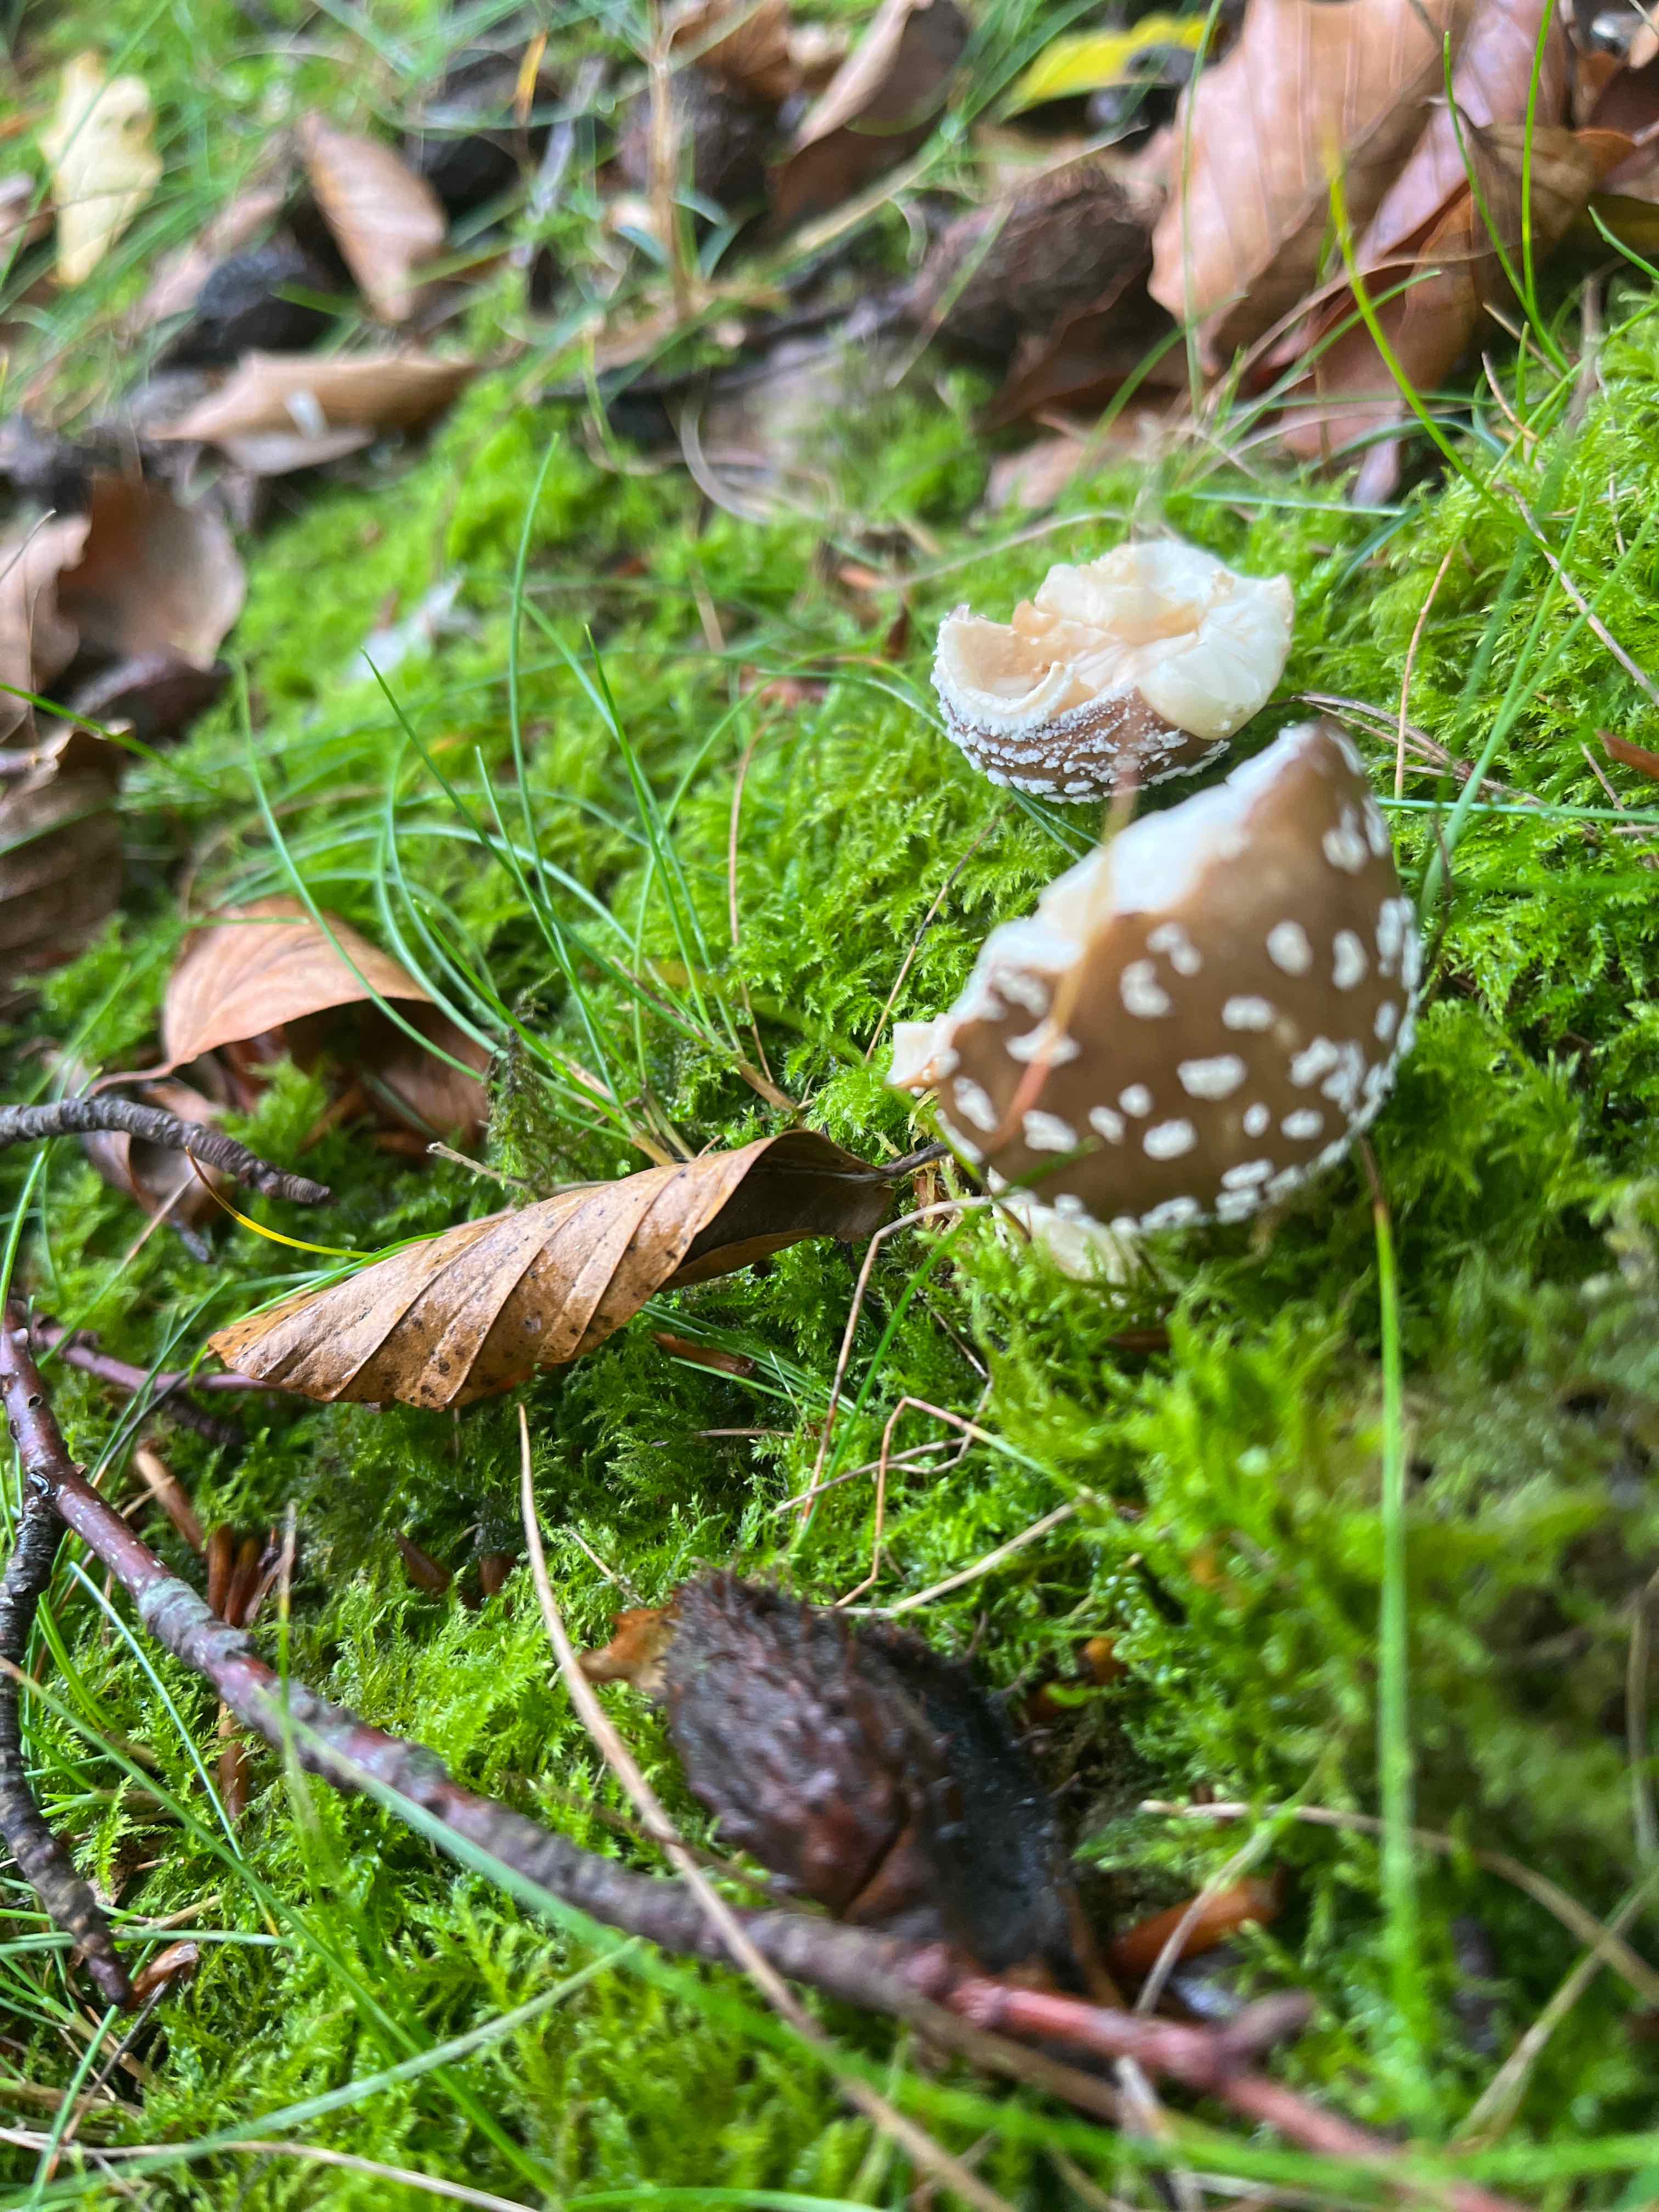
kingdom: Fungi
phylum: Basidiomycota
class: Agaricomycetes
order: Agaricales
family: Amanitaceae
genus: Amanita
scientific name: Amanita pantherina
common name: panter-fluesvamp
